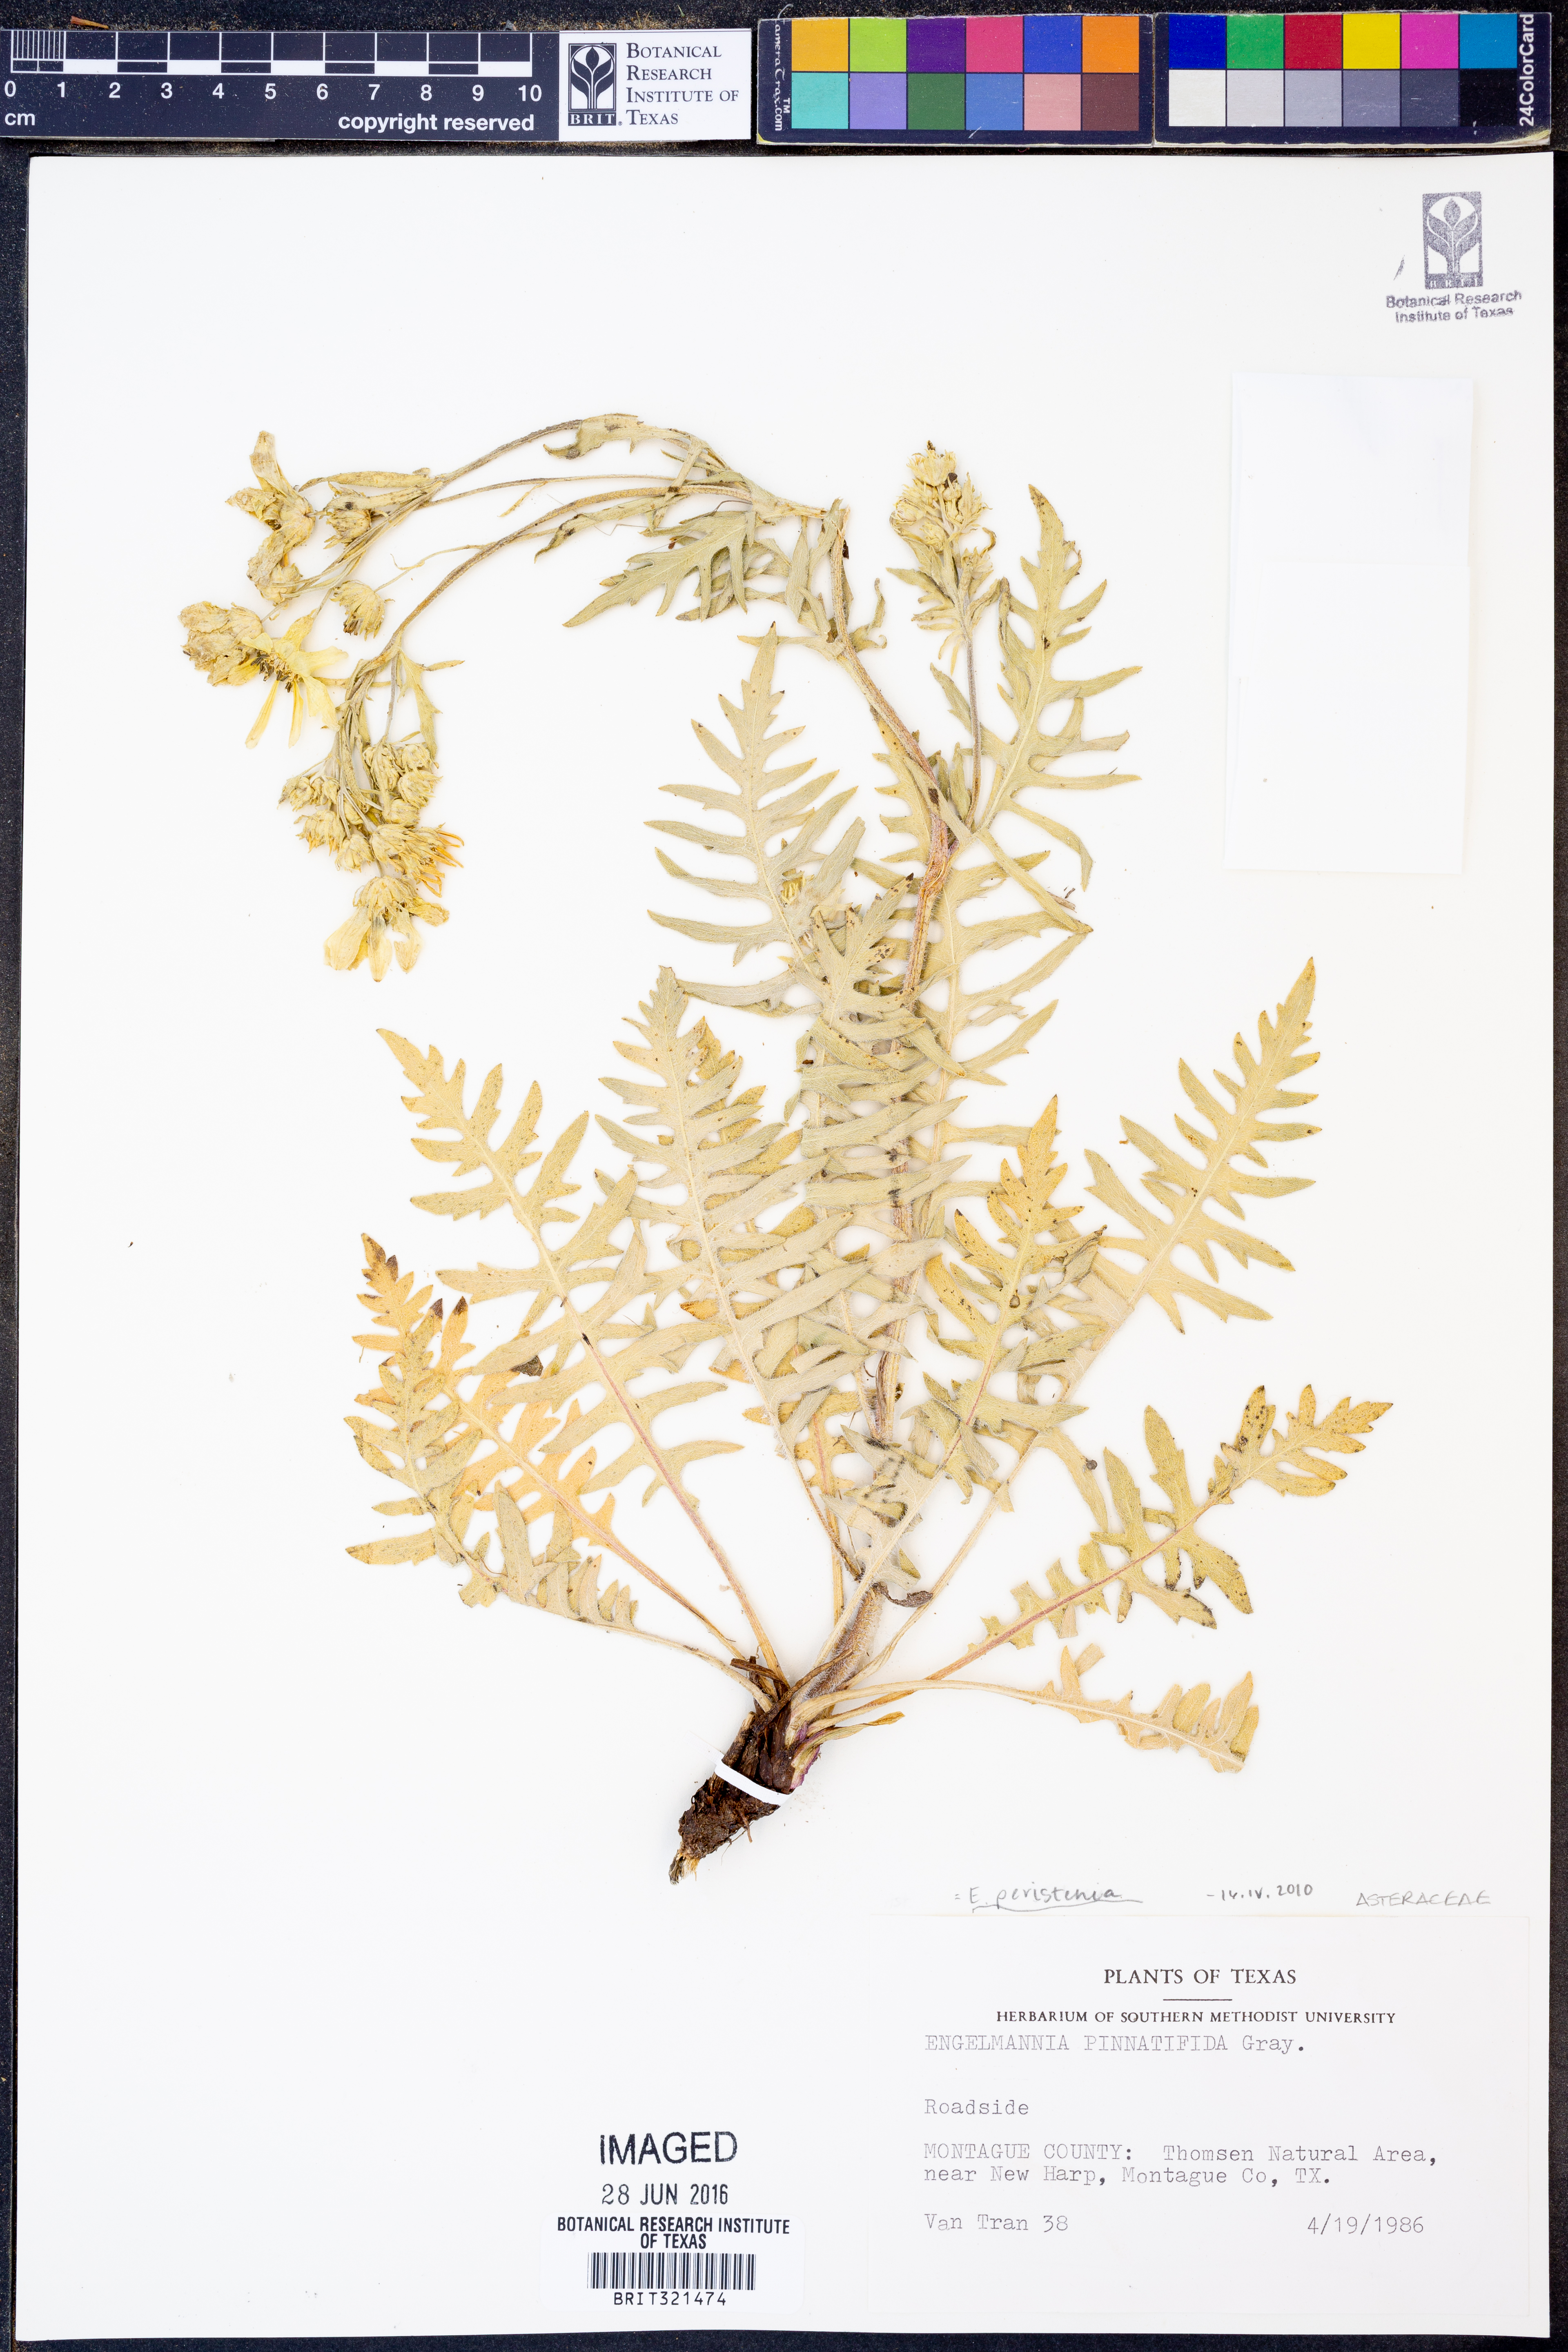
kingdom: Plantae
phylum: Tracheophyta
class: Magnoliopsida
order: Asterales
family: Asteraceae
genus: Engelmannia
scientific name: Engelmannia peristenia
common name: Engelmann's daisy
